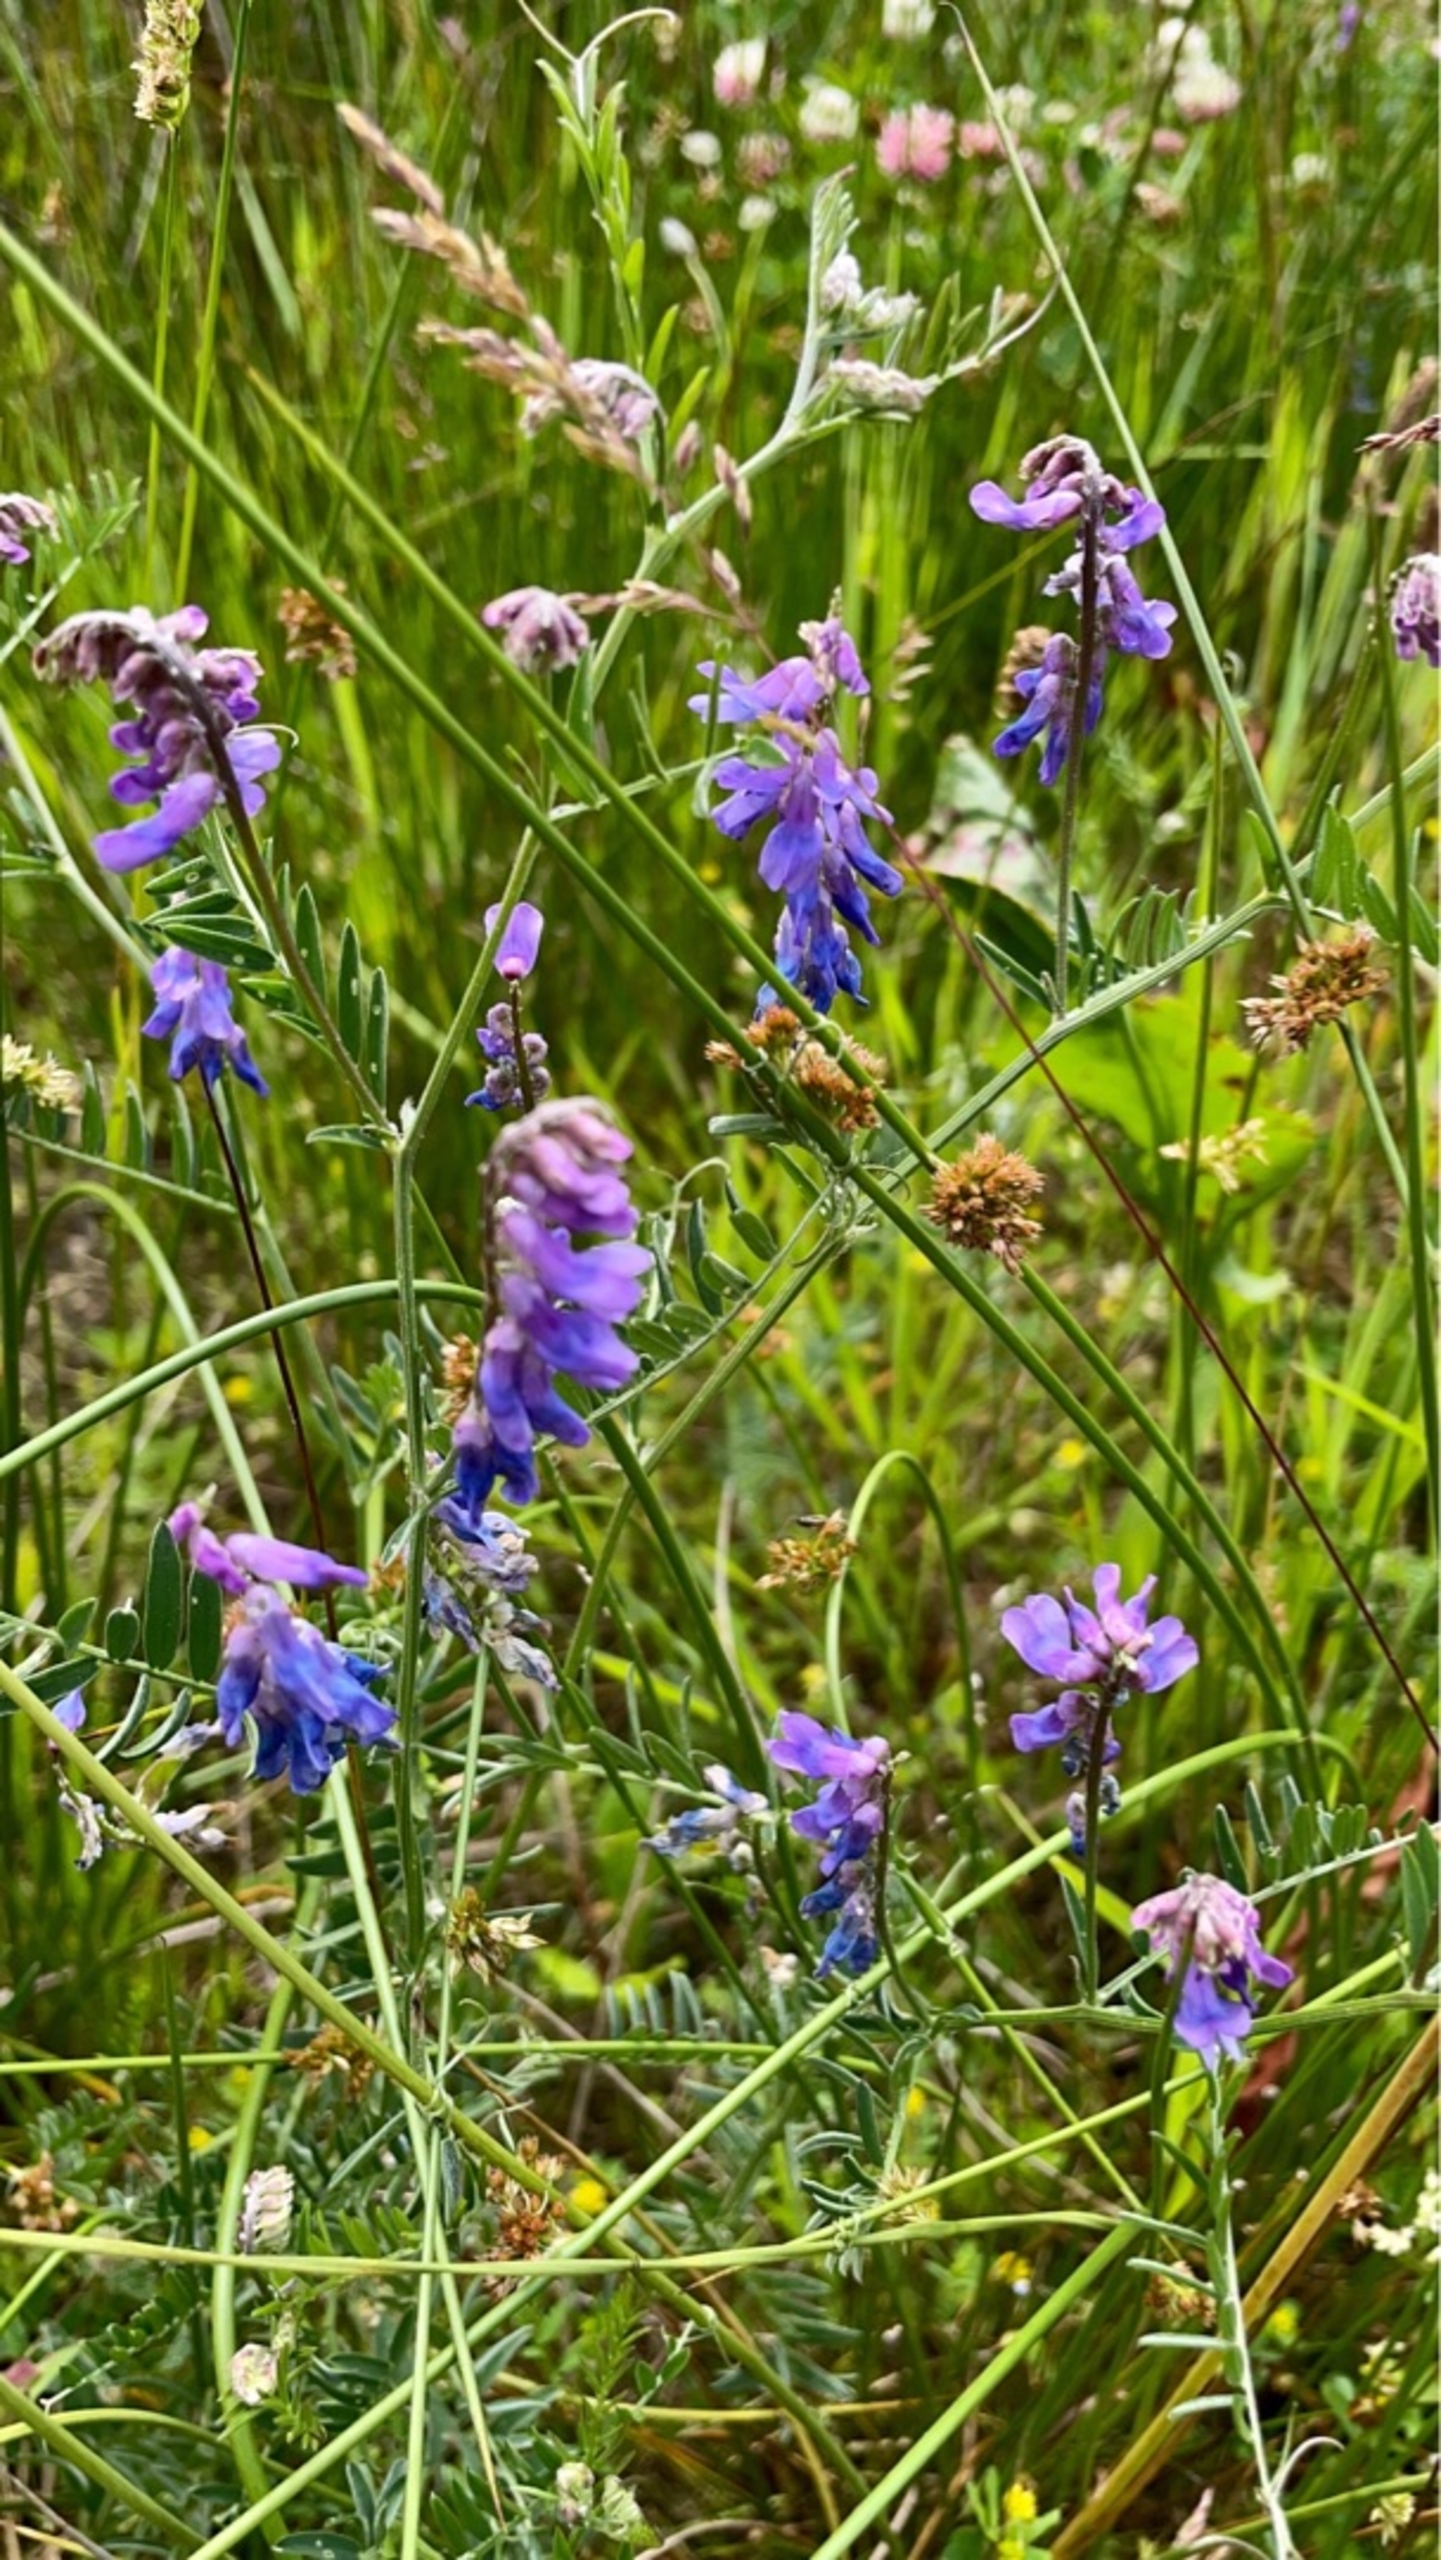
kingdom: Plantae
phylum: Tracheophyta
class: Magnoliopsida
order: Fabales
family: Fabaceae
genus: Vicia
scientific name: Vicia cracca
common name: Muse-vikke
